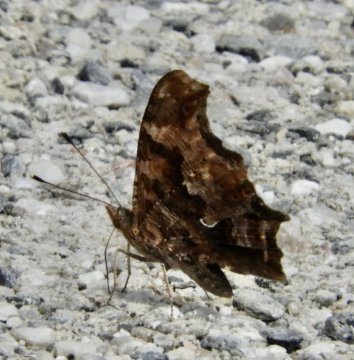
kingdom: Animalia
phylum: Arthropoda
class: Insecta
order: Lepidoptera
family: Nymphalidae
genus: Polygonia
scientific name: Polygonia comma
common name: Eastern Comma
